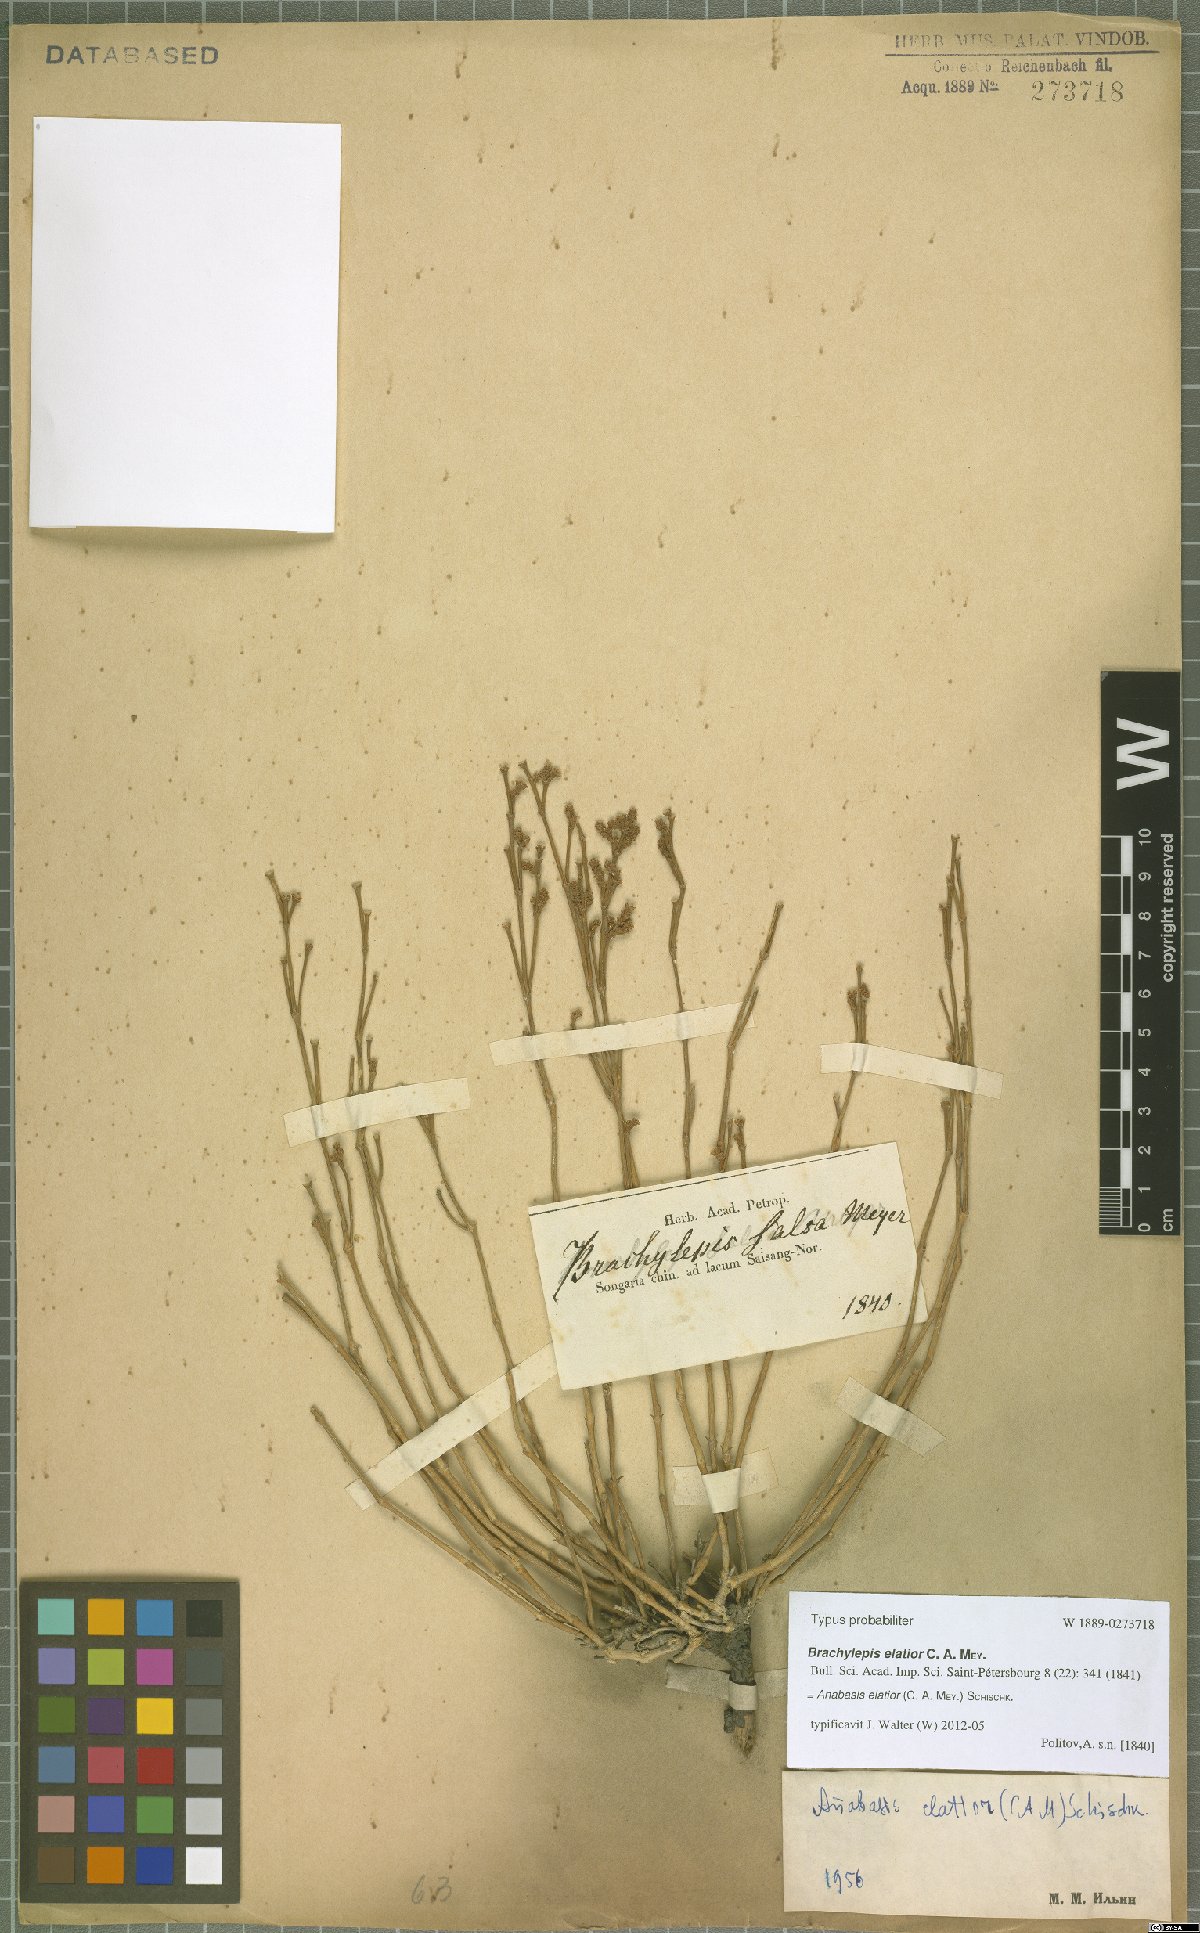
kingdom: Plantae
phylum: Tracheophyta
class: Magnoliopsida
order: Caryophyllales
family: Amaranthaceae
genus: Anabasis
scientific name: Anabasis elatior
